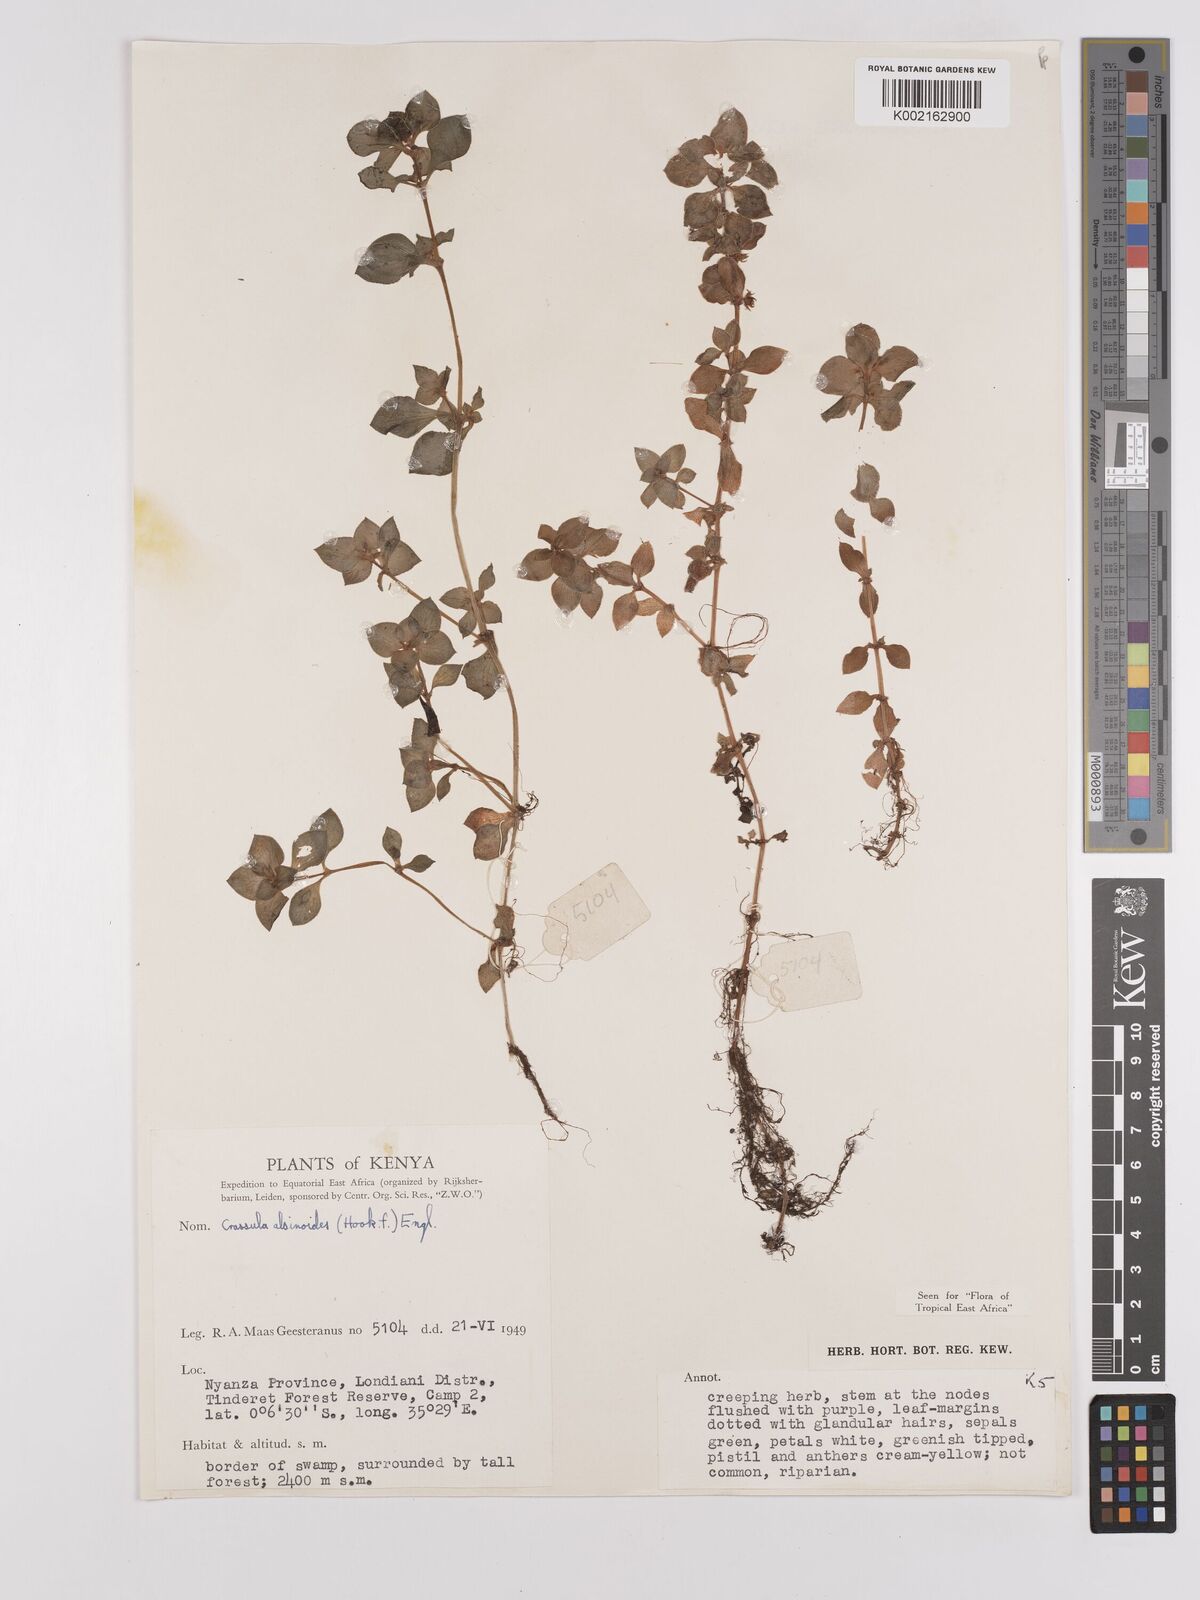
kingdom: Plantae
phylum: Tracheophyta
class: Magnoliopsida
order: Saxifragales
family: Crassulaceae
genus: Crassula
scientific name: Crassula alsinoides
